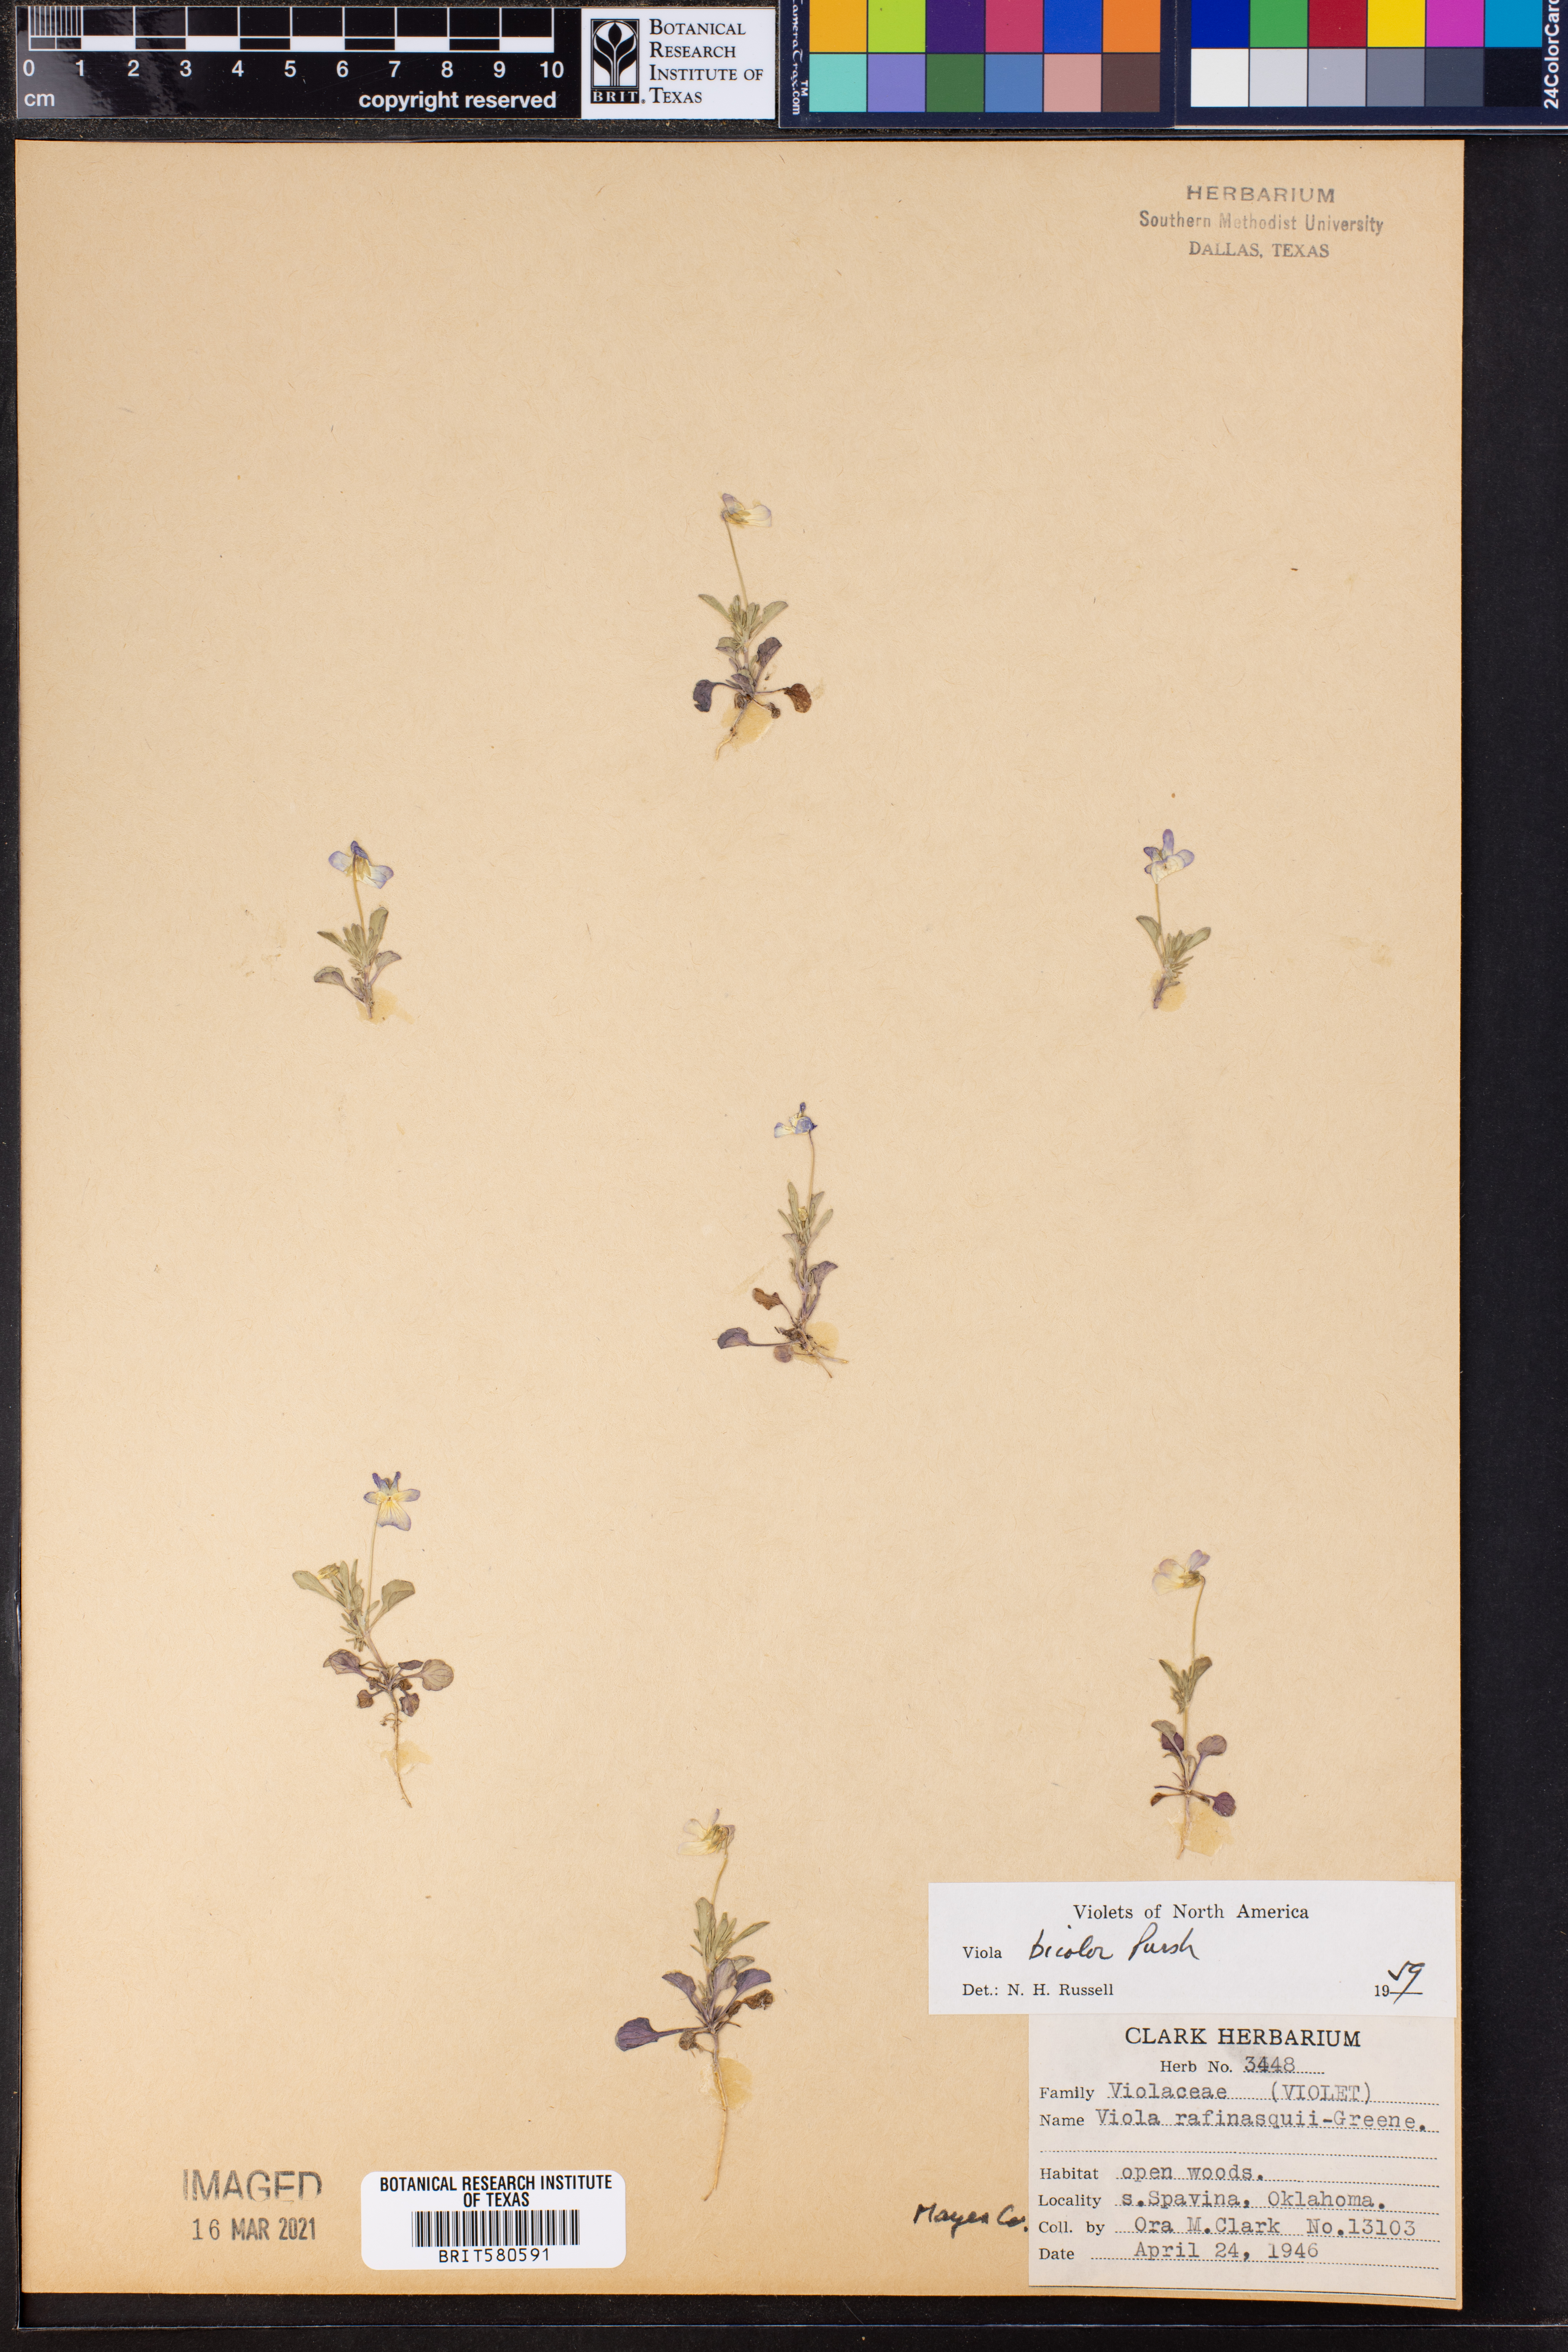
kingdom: Plantae
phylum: Tracheophyta
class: Magnoliopsida
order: Malpighiales
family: Violaceae
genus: Viola
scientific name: Viola rafinesquei
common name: American field pansy
